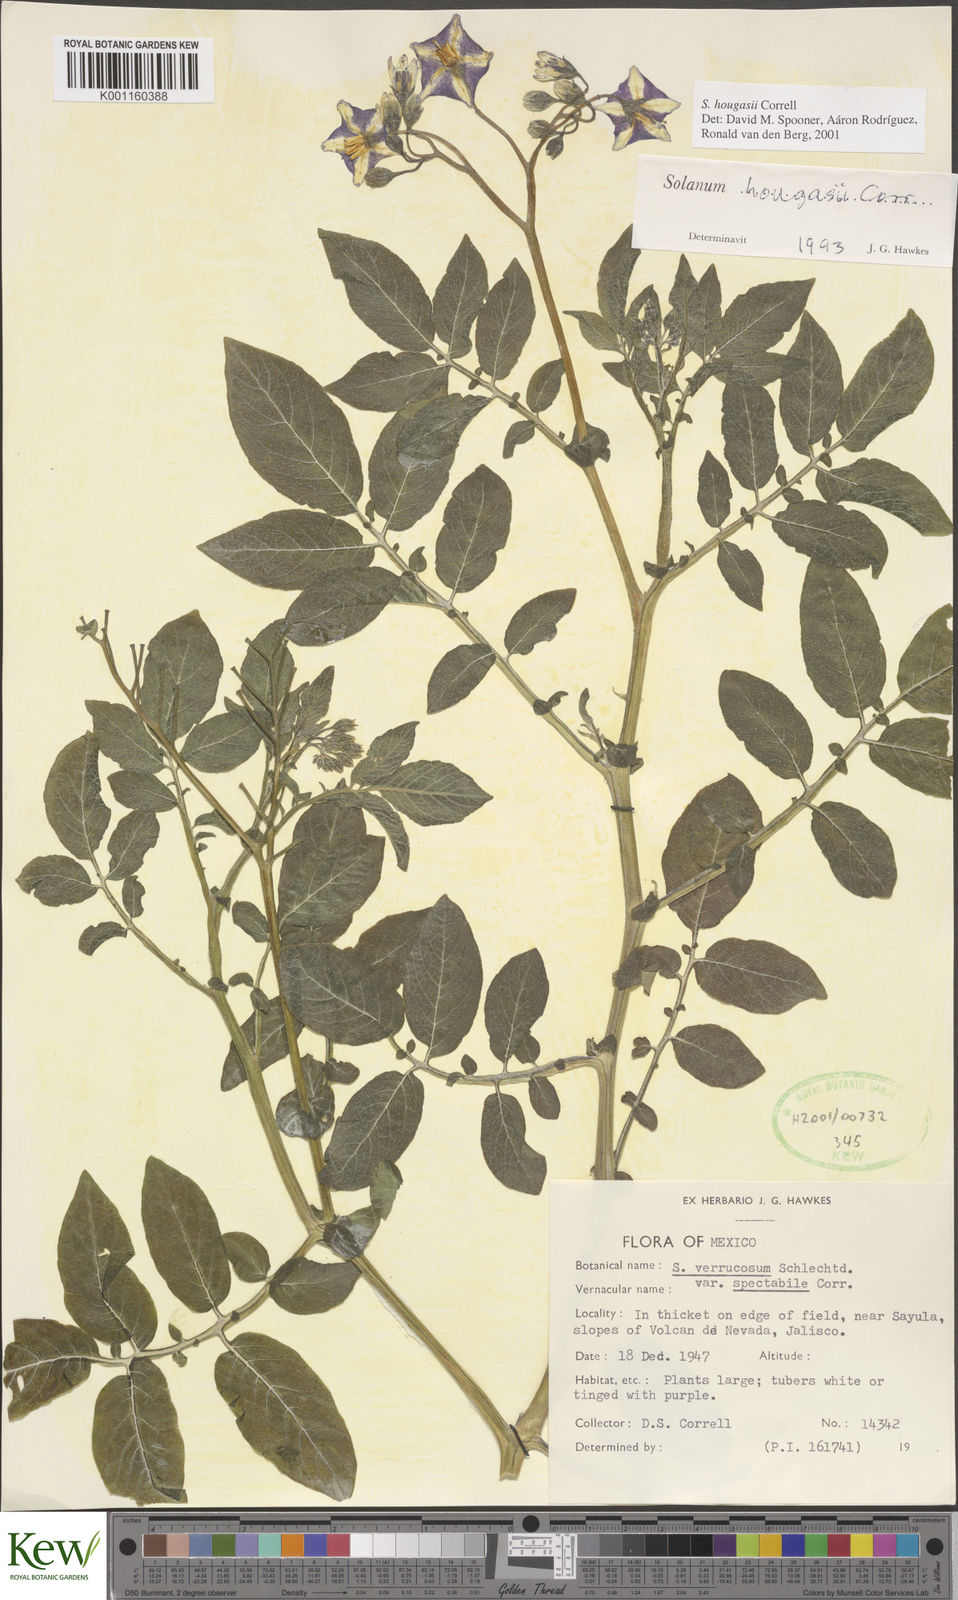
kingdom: Plantae
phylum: Tracheophyta
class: Magnoliopsida
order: Solanales
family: Solanaceae
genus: Solanum
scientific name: Solanum hougasii
